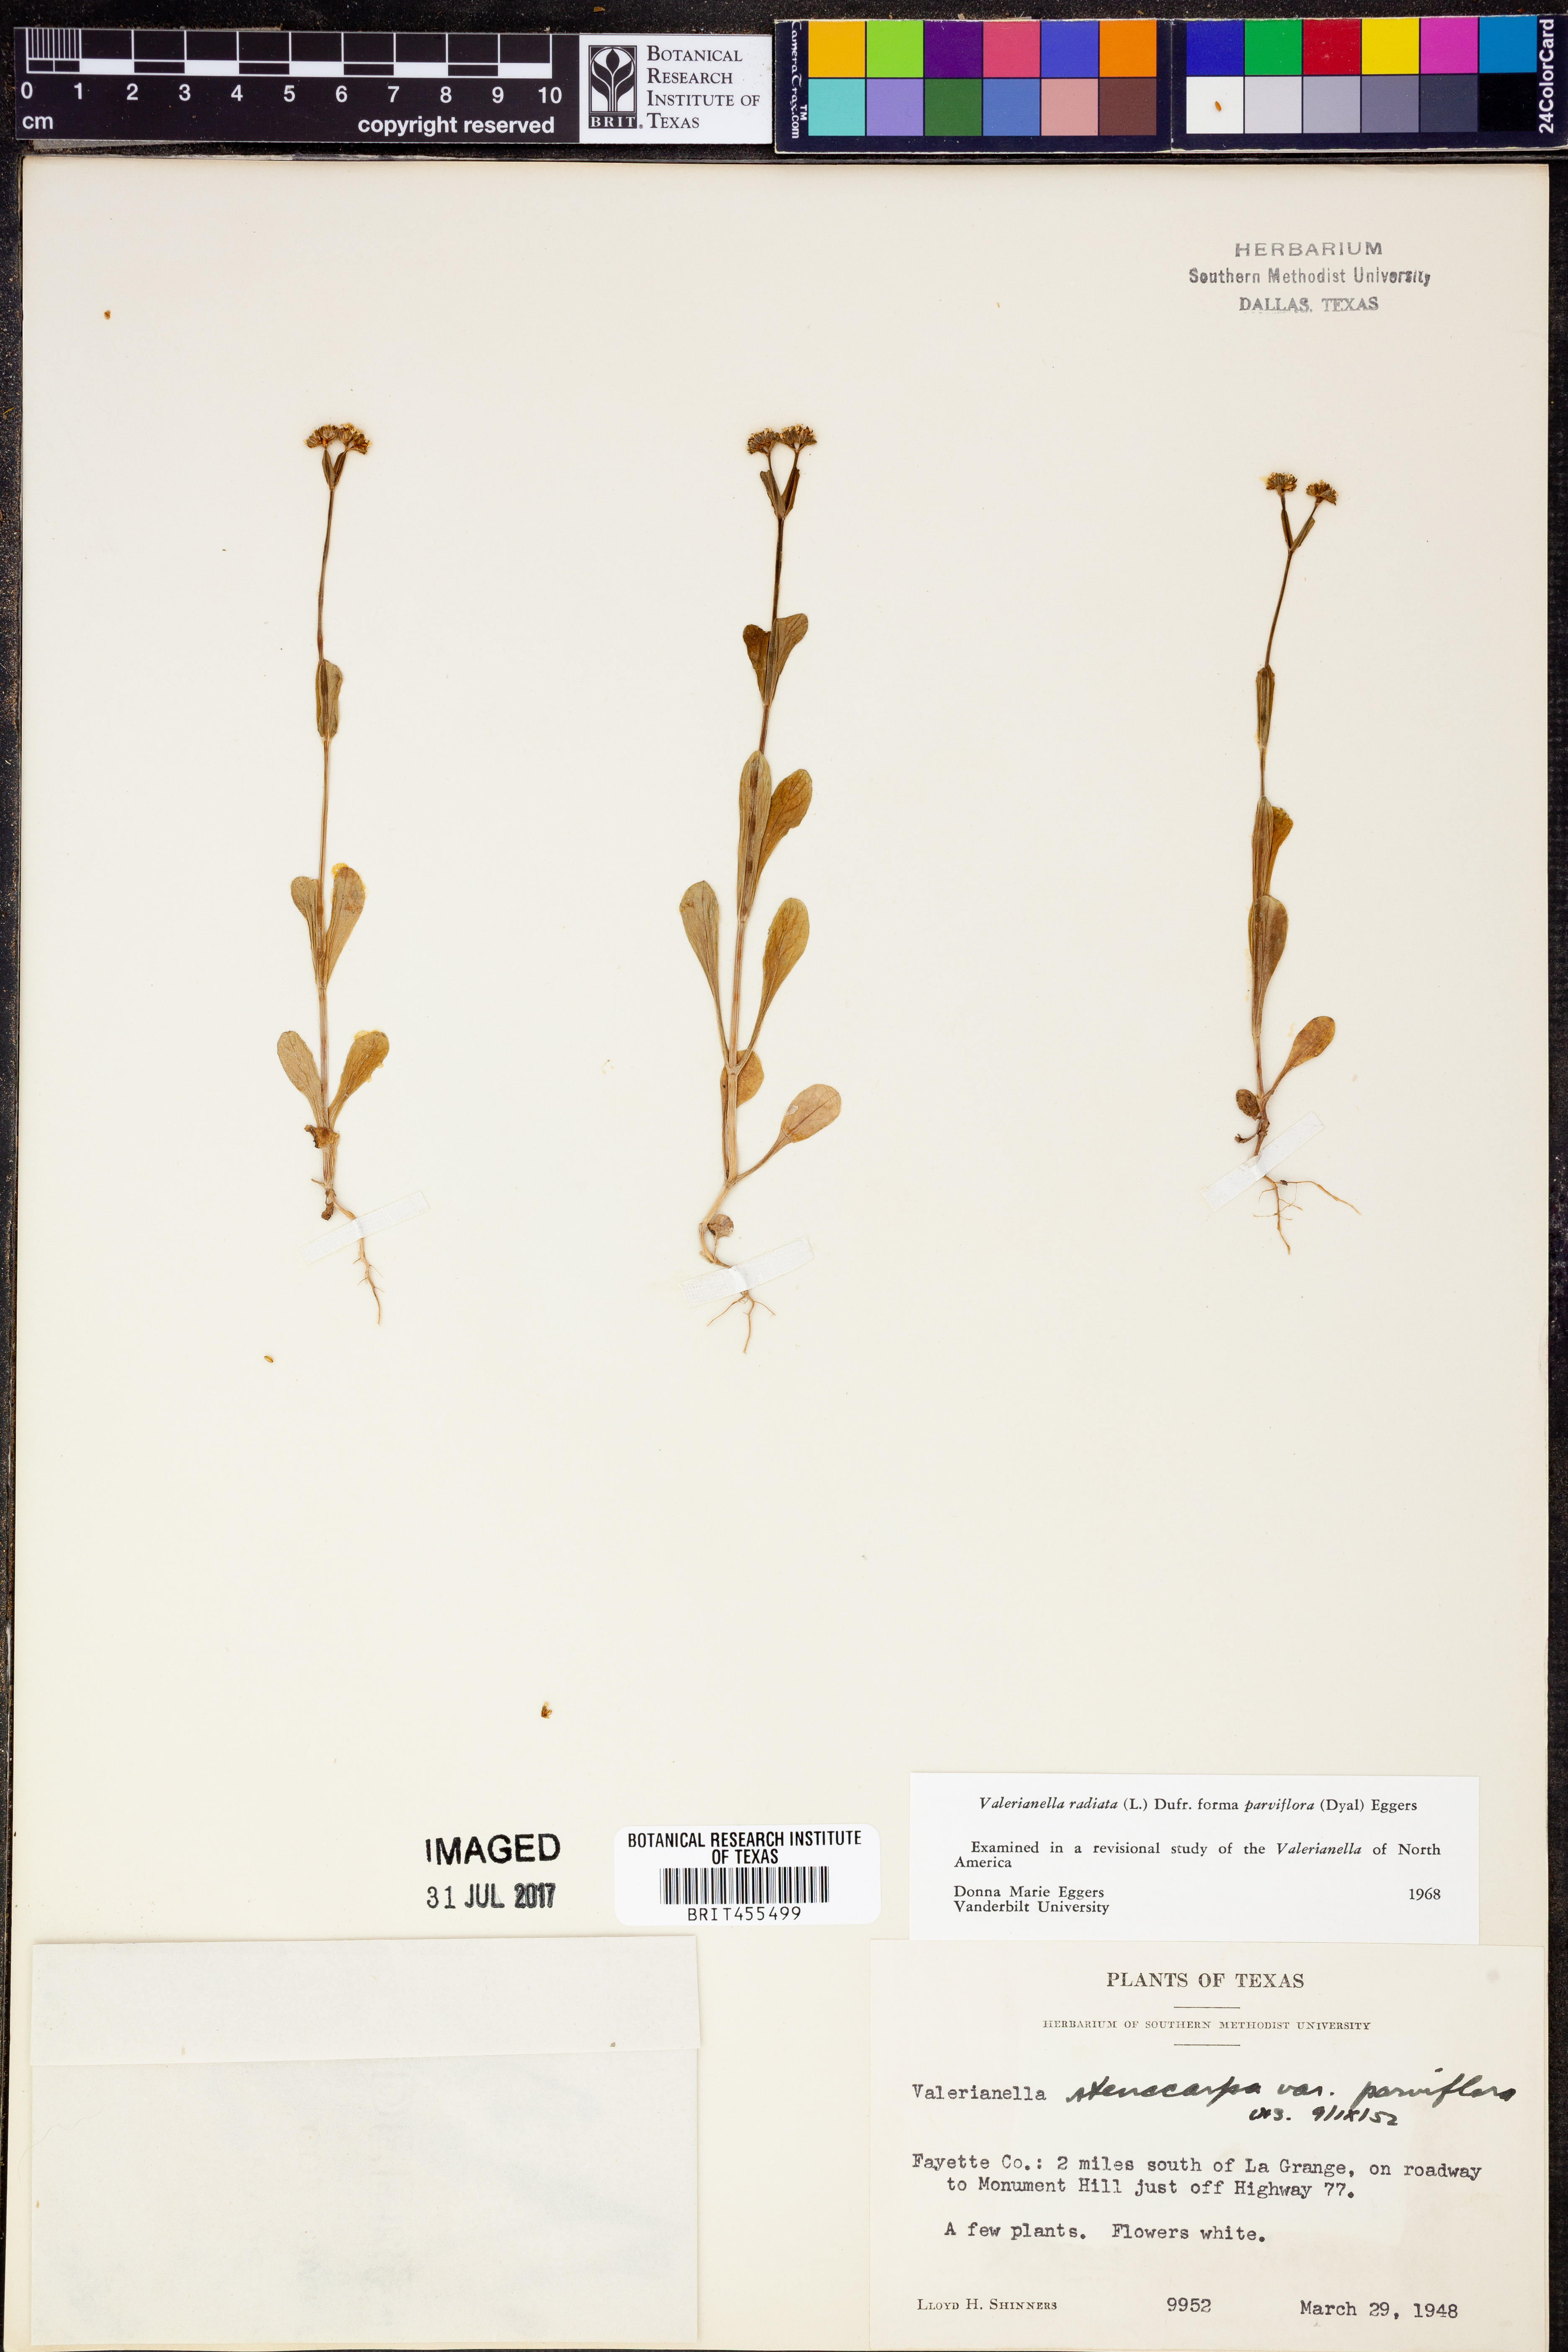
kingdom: Plantae
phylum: Tracheophyta
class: Magnoliopsida
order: Dipsacales
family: Caprifoliaceae
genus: Valerianella
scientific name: Valerianella radiata
